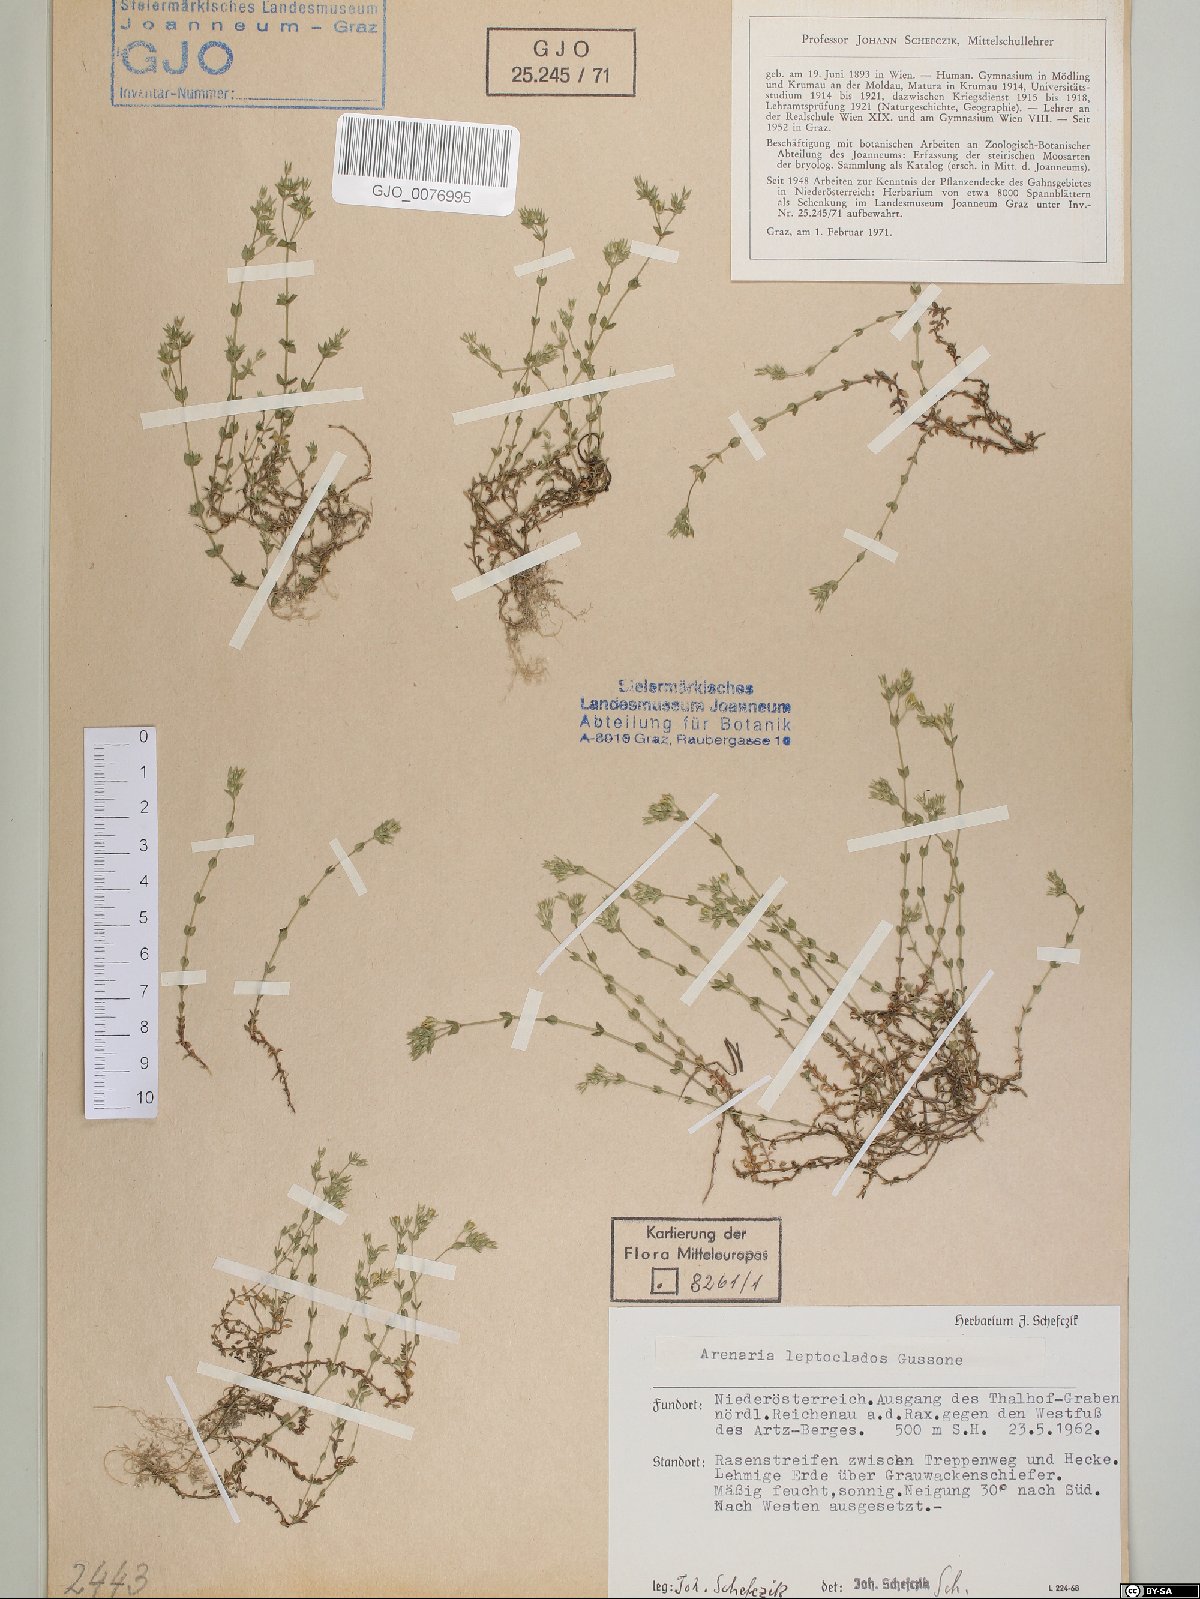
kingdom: Plantae
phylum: Tracheophyta
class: Magnoliopsida
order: Caryophyllales
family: Caryophyllaceae
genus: Arenaria
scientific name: Arenaria leptoclados
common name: Thyme-leaved sandwort
